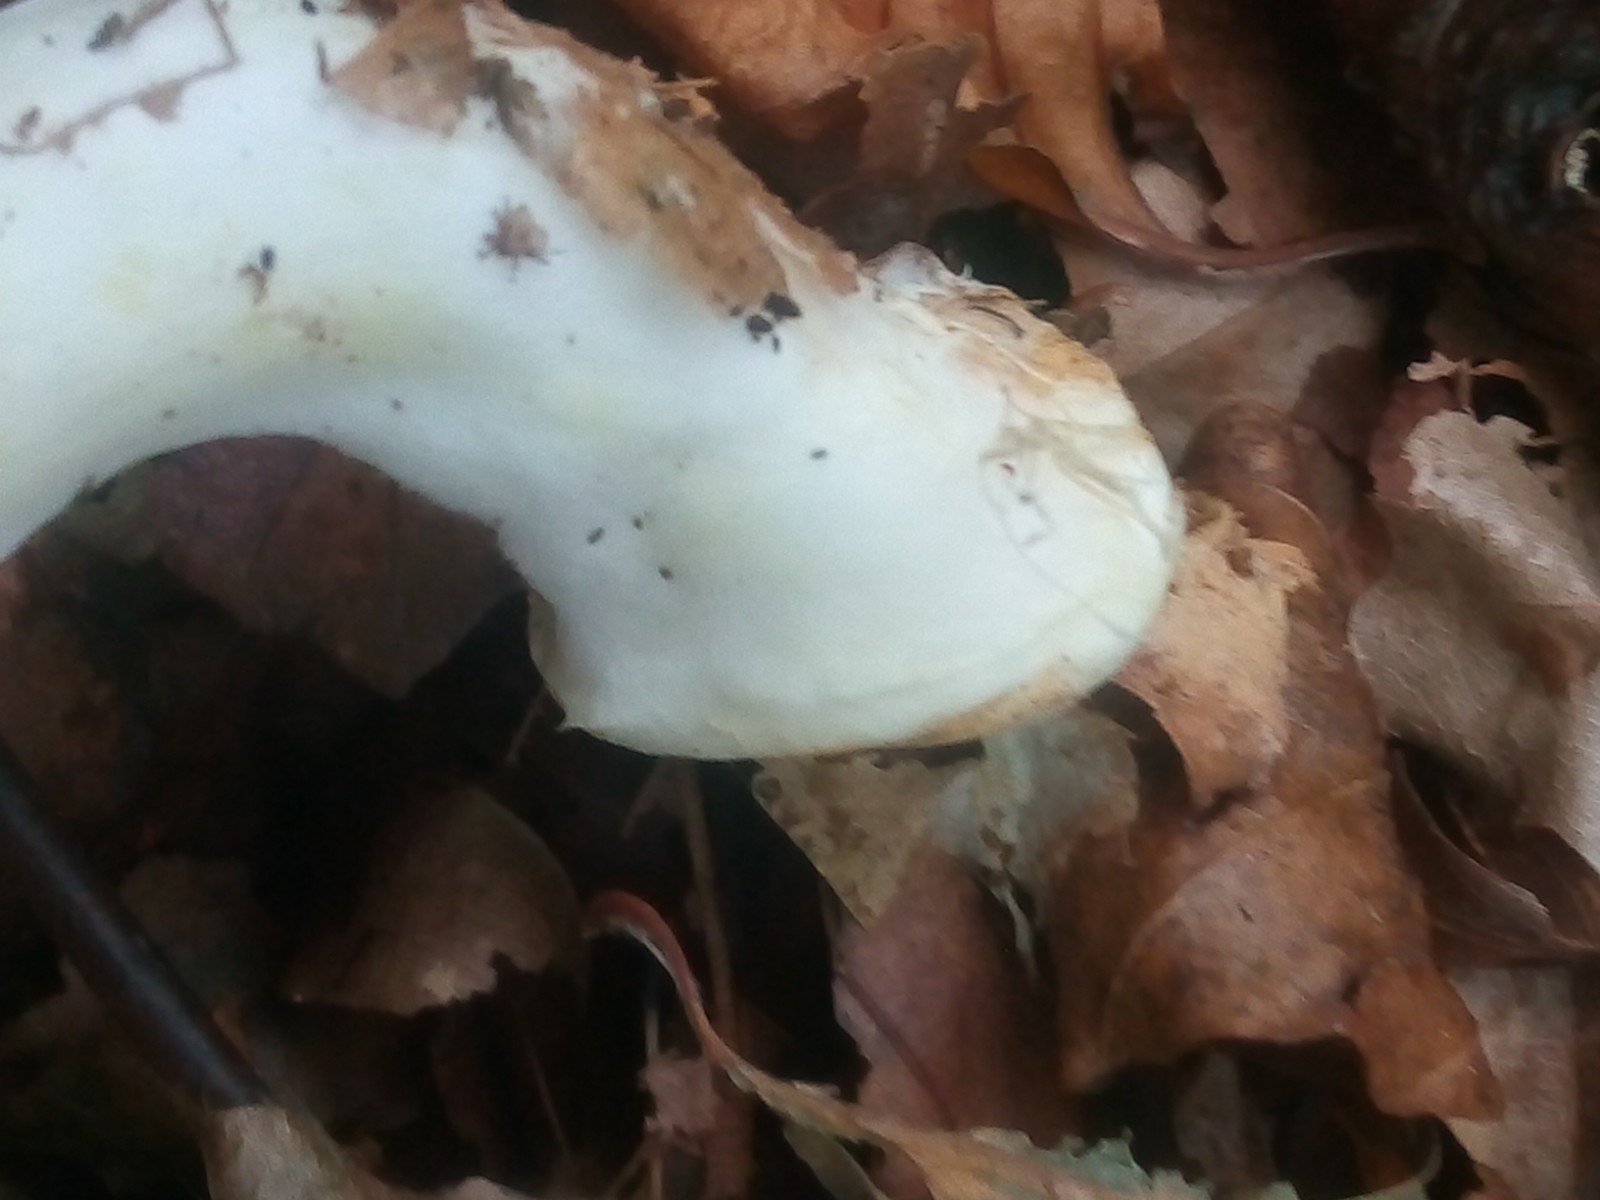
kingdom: Fungi
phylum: Basidiomycota
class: Agaricomycetes
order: Agaricales
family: Agaricaceae
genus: Agaricus
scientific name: Agaricus sylvicola
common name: skiveknoldet champignon
